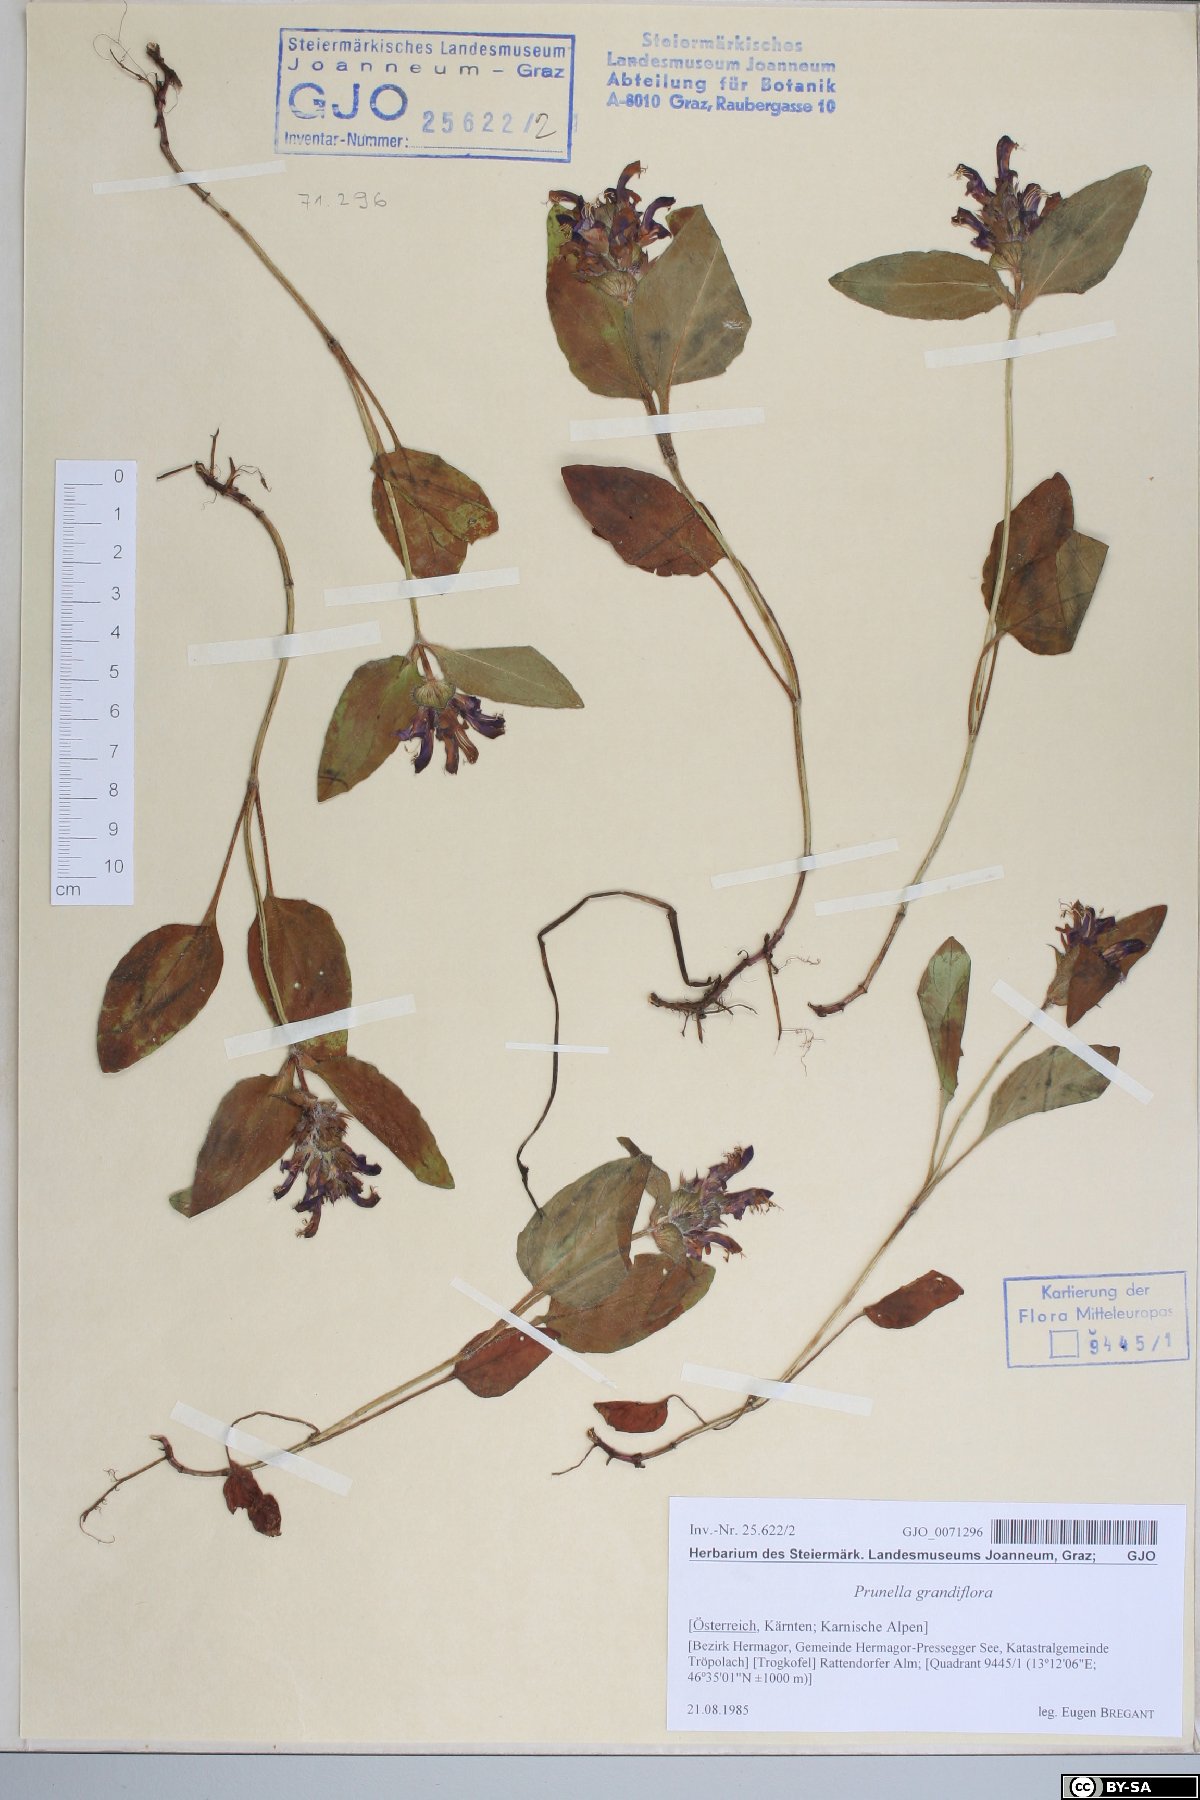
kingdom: Plantae
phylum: Tracheophyta
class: Magnoliopsida
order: Lamiales
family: Lamiaceae
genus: Prunella
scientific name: Prunella grandiflora
